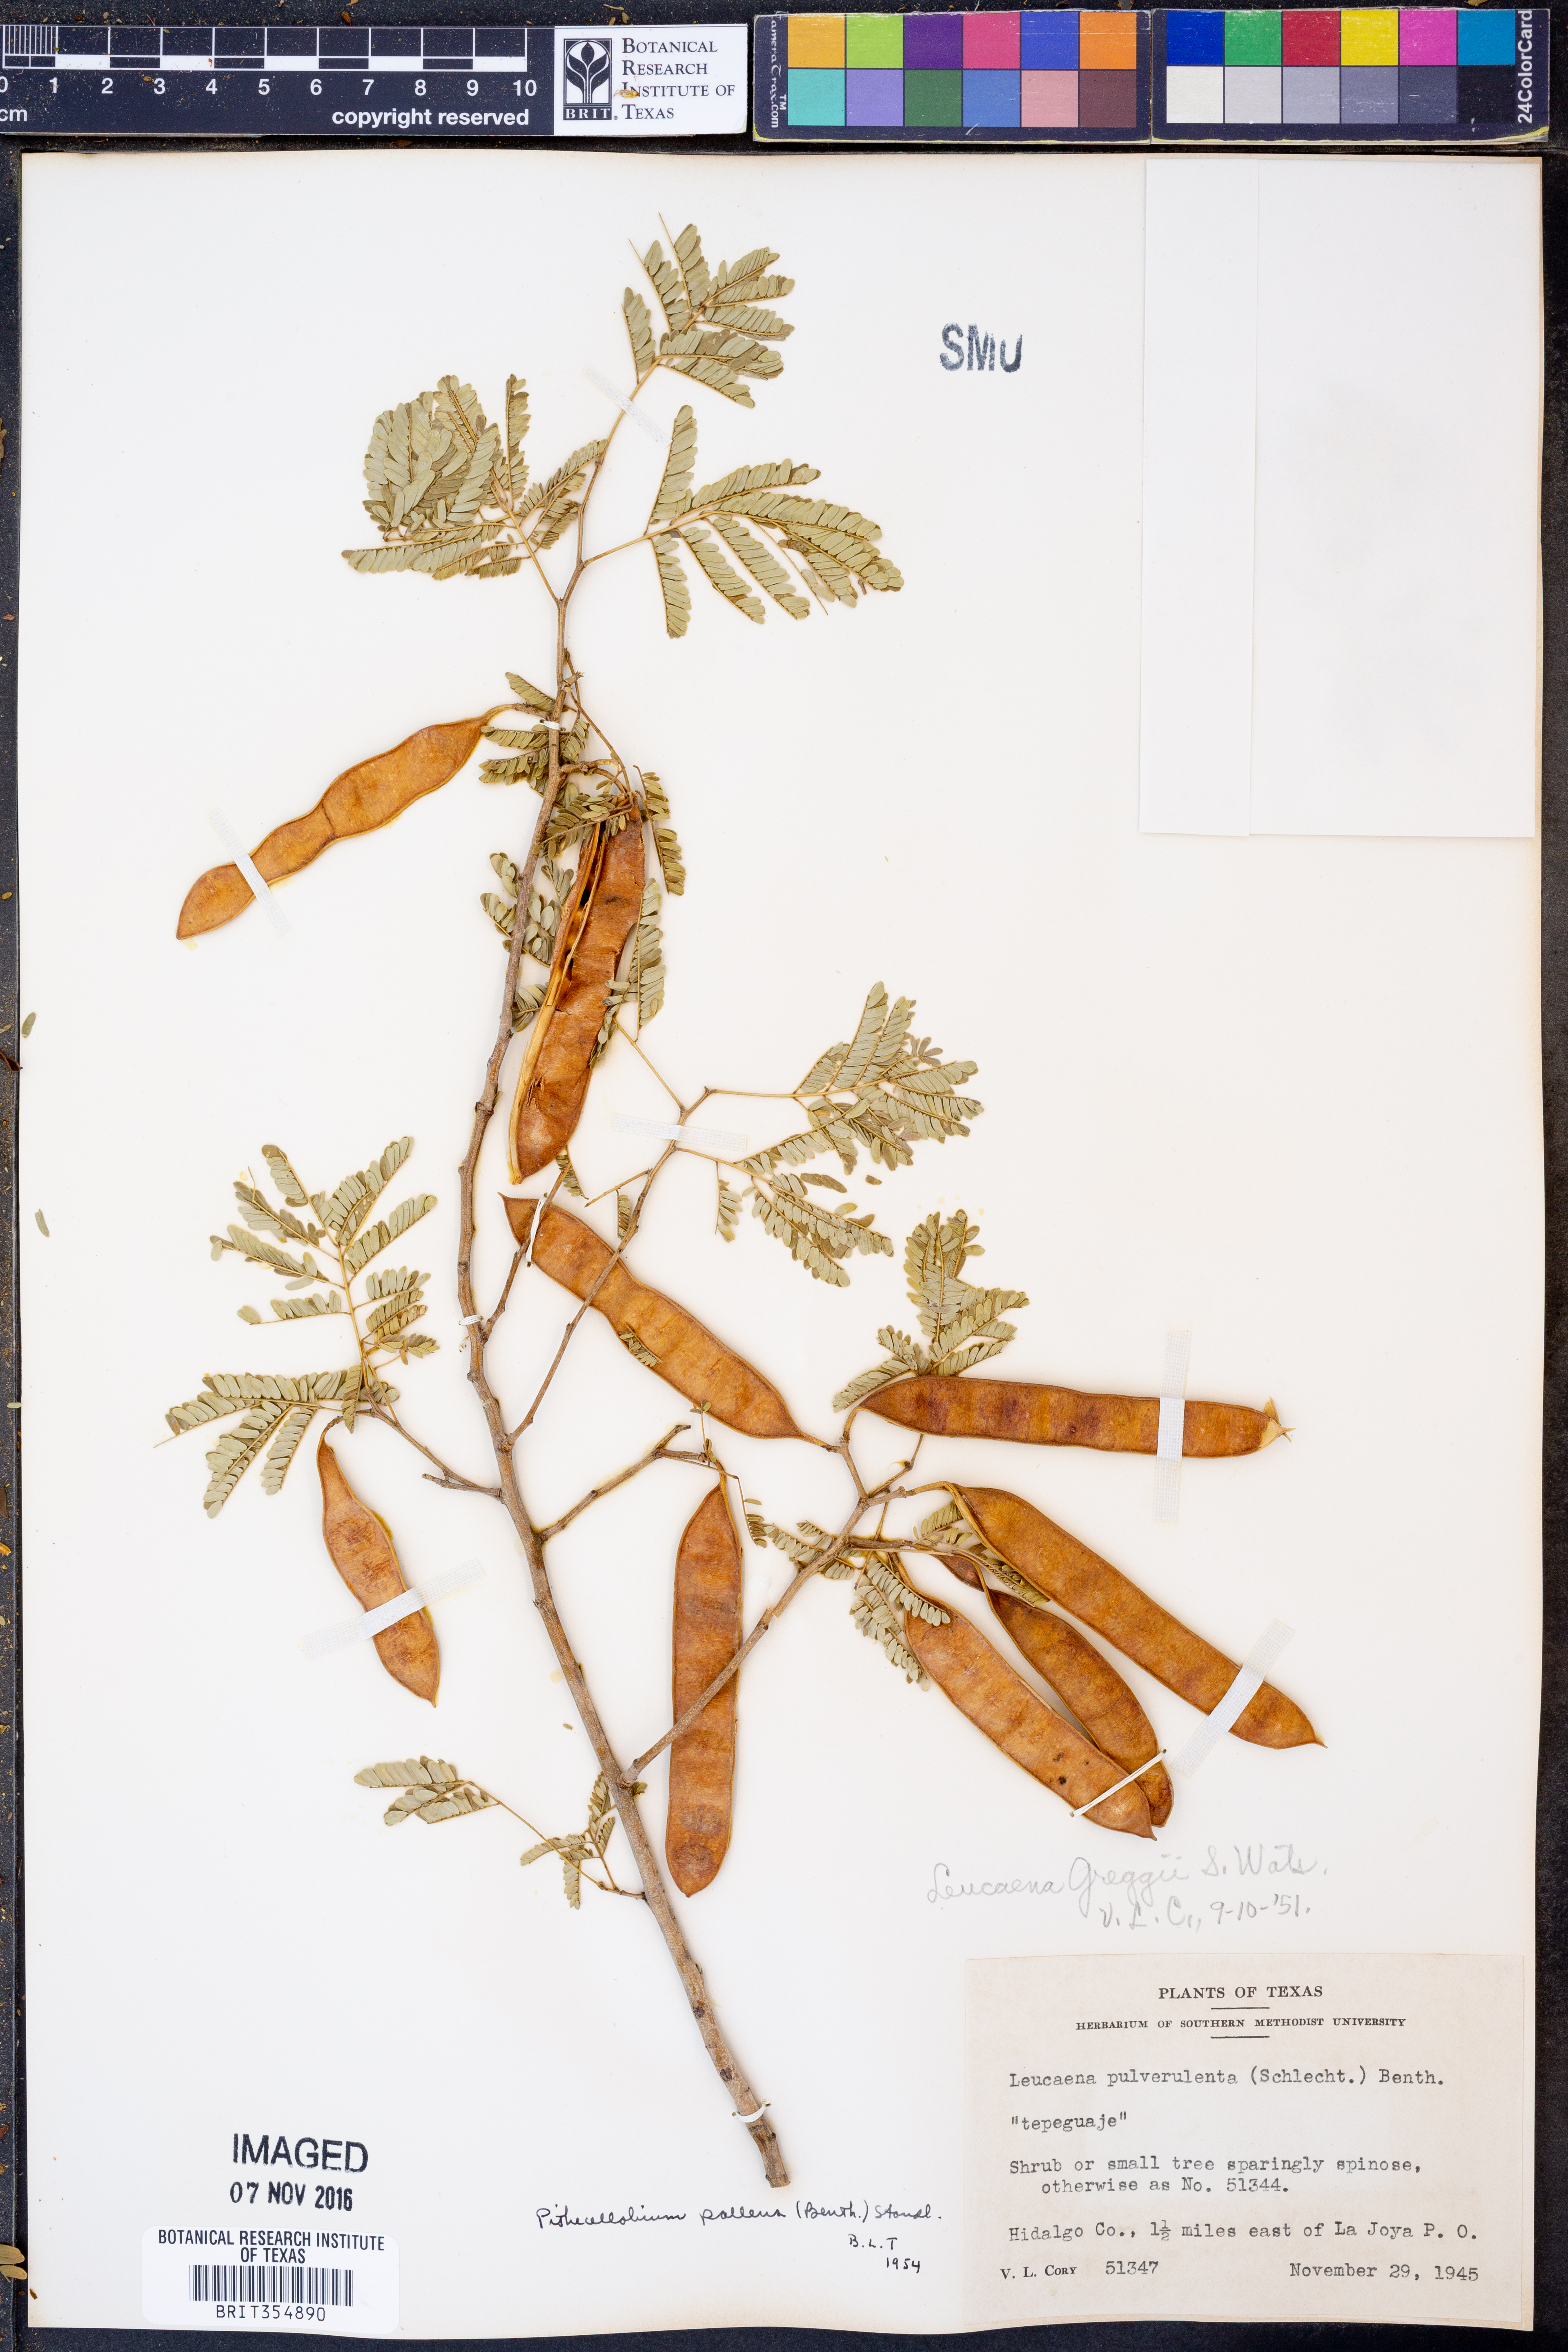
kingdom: Plantae
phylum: Tracheophyta
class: Magnoliopsida
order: Fabales
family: Fabaceae
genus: Havardia
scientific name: Havardia pallens
